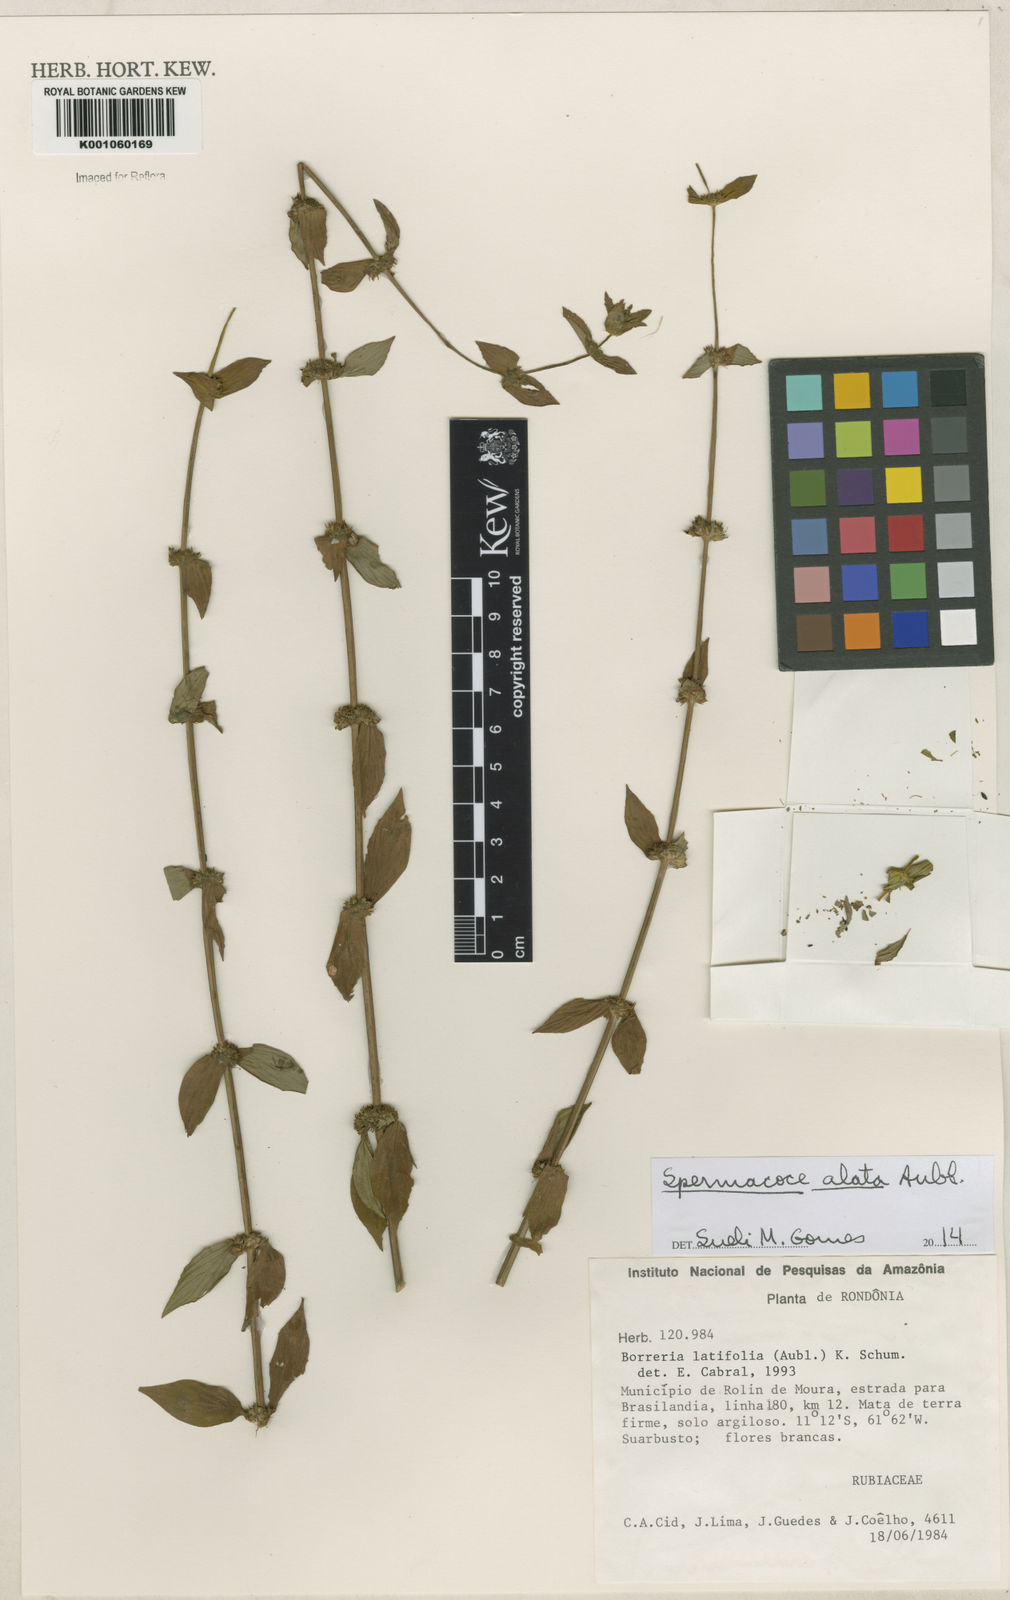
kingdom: Plantae
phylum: Tracheophyta
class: Magnoliopsida
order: Gentianales
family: Rubiaceae
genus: Spermacoce
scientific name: Spermacoce
